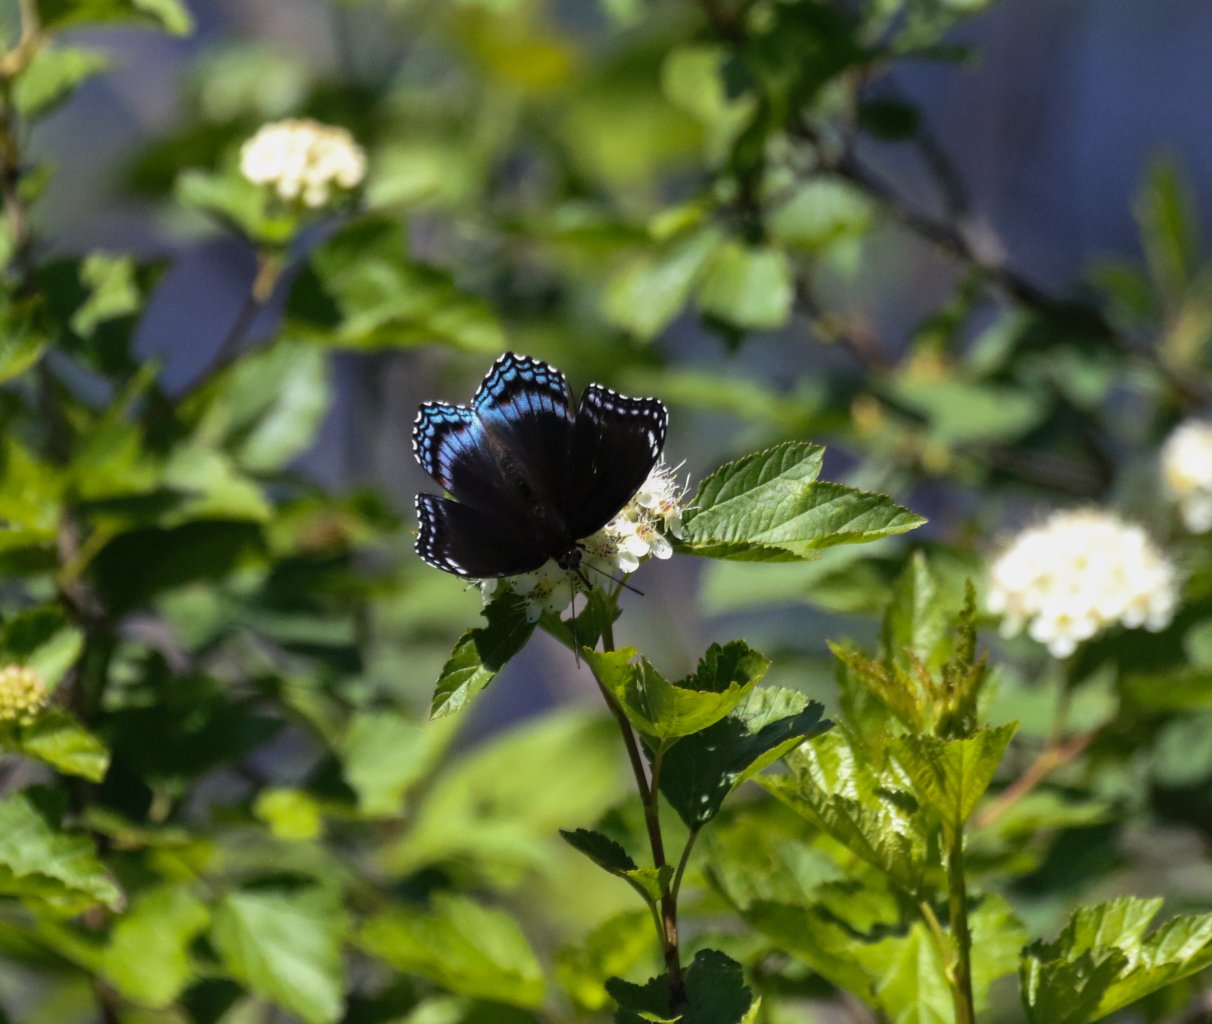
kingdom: Animalia
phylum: Arthropoda
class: Insecta
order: Lepidoptera
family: Nymphalidae
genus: Limenitis
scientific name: Limenitis astyanax
